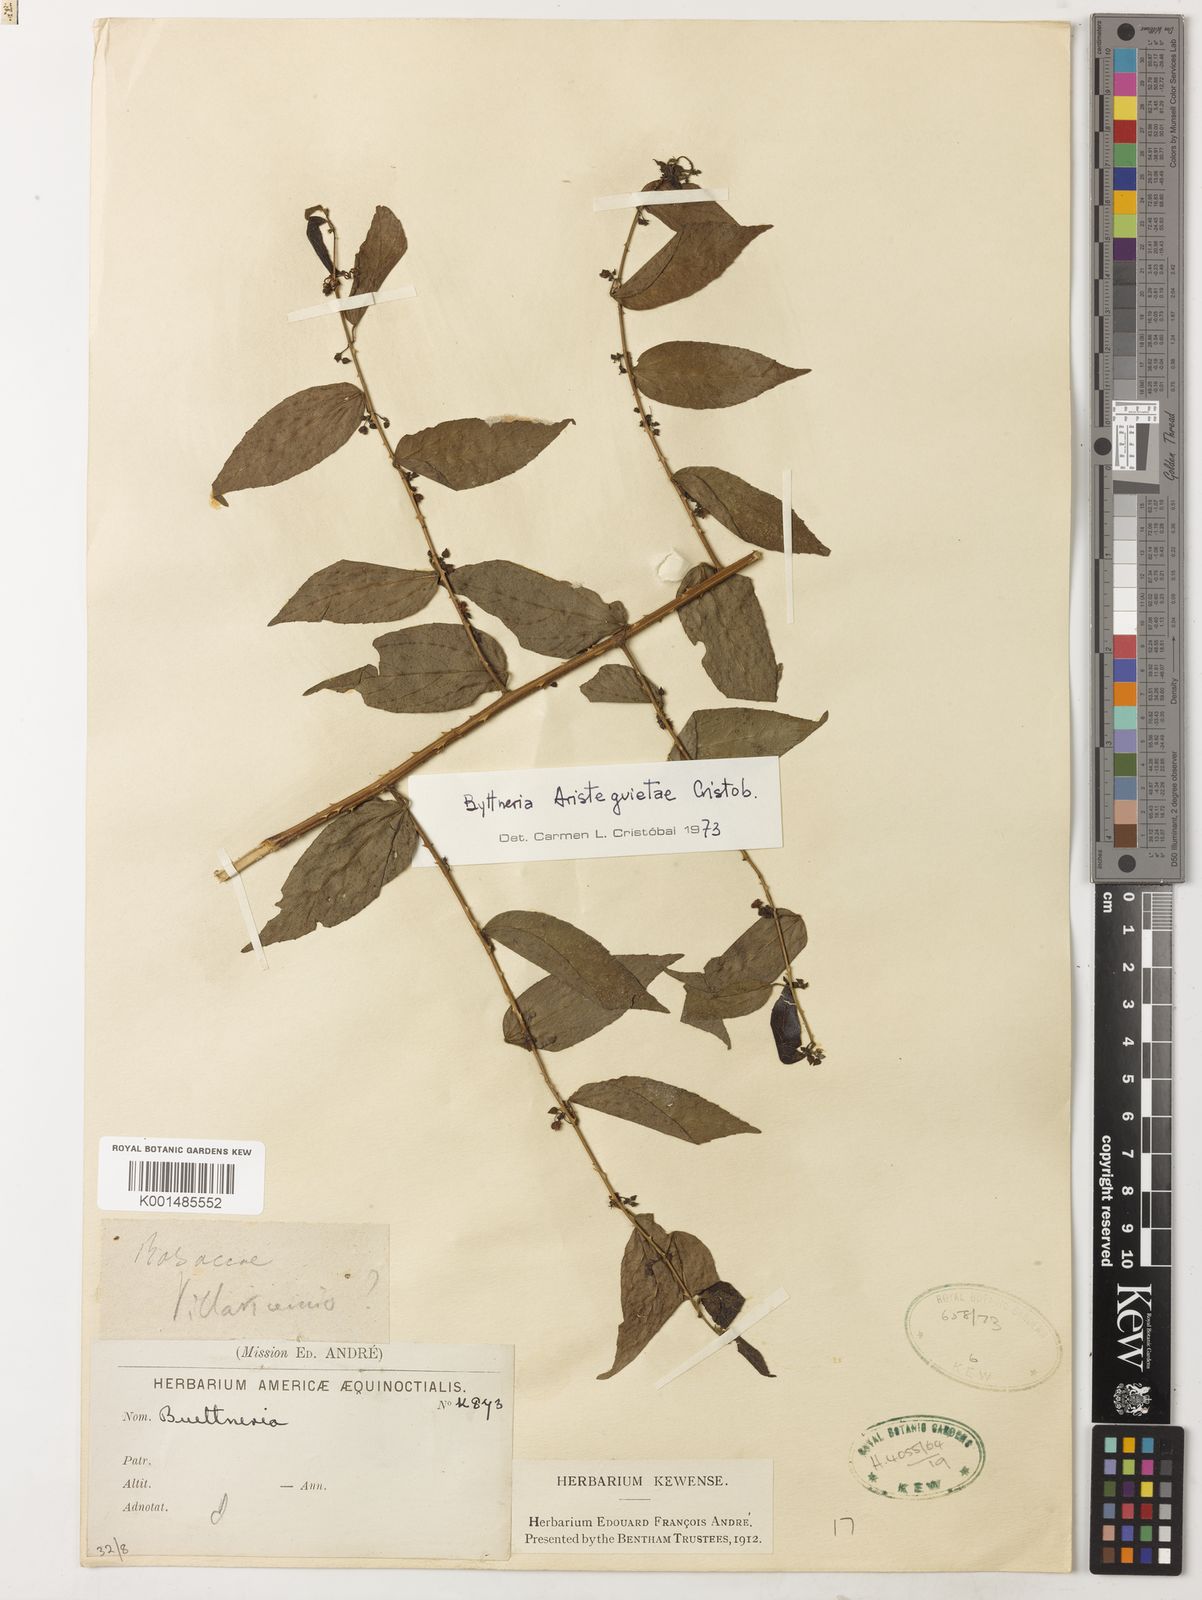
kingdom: Plantae
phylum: Tracheophyta
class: Magnoliopsida
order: Malvales
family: Malvaceae
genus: Byttneria
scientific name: Byttneria aristeguietae
